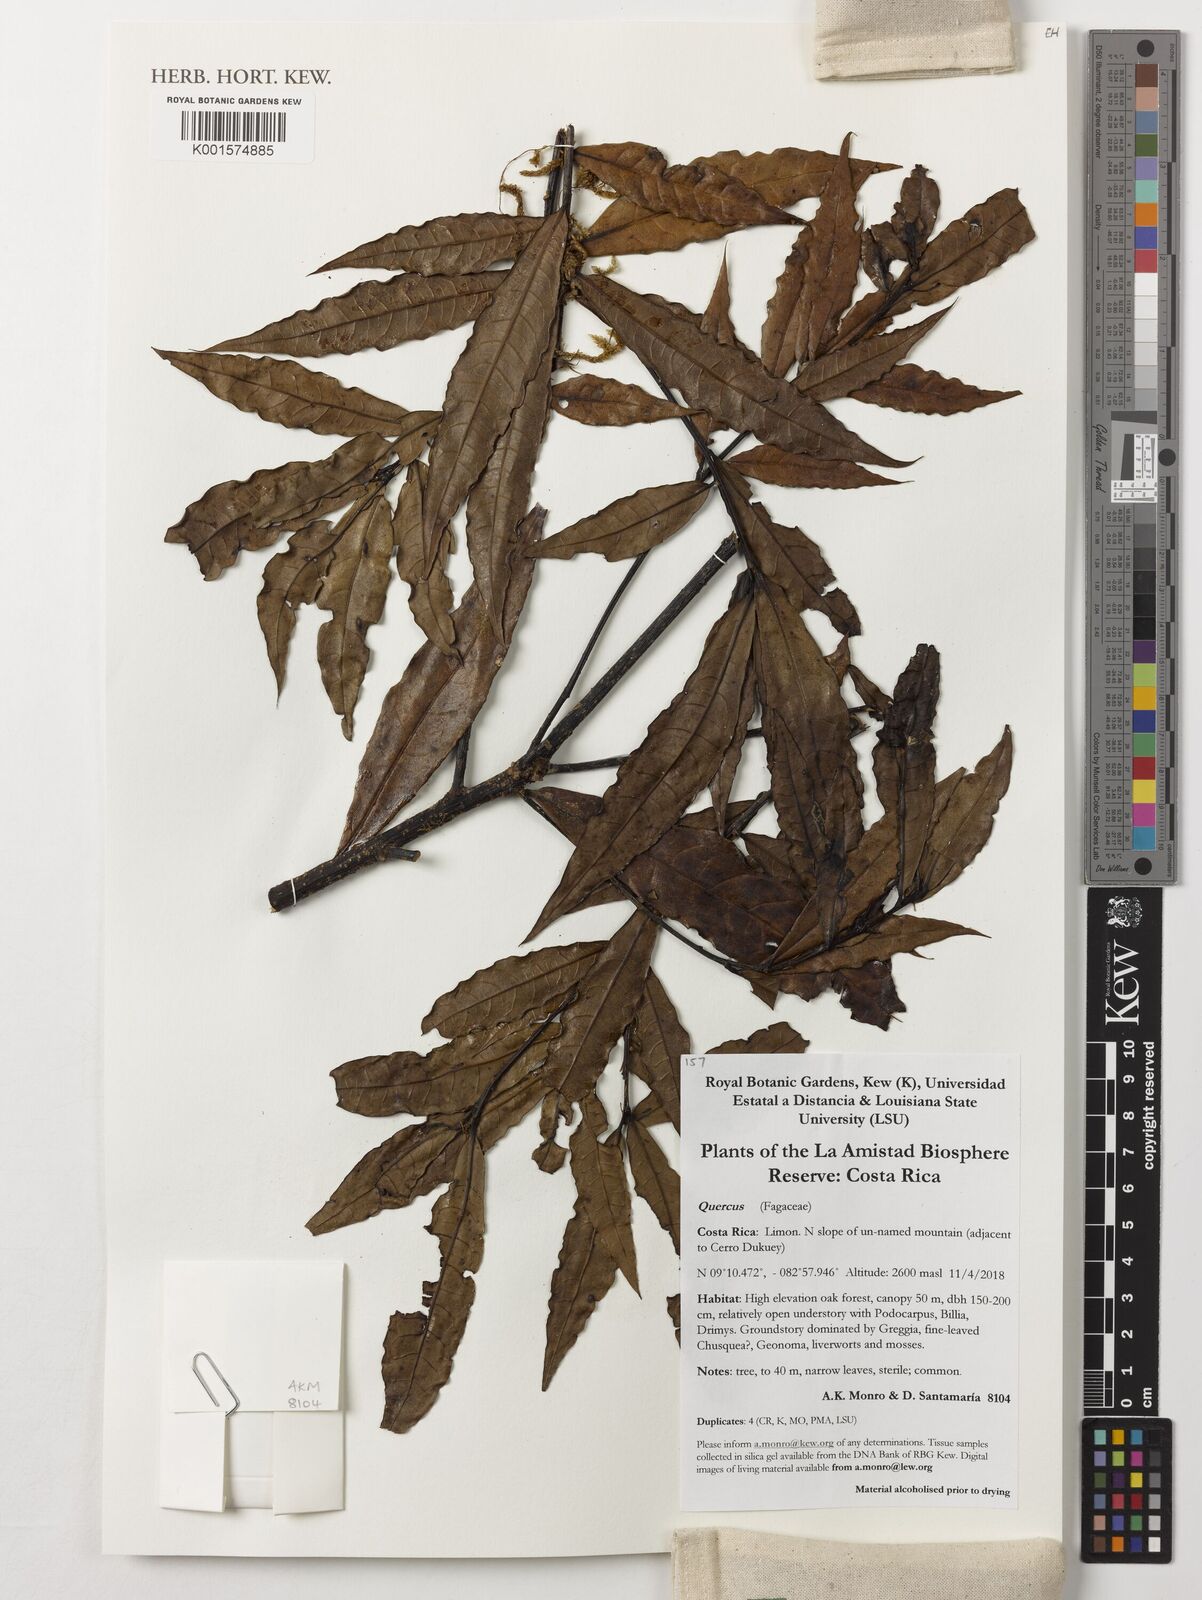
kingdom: Plantae
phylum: Tracheophyta
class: Magnoliopsida
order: Fagales
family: Fagaceae
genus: Quercus
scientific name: Quercus
